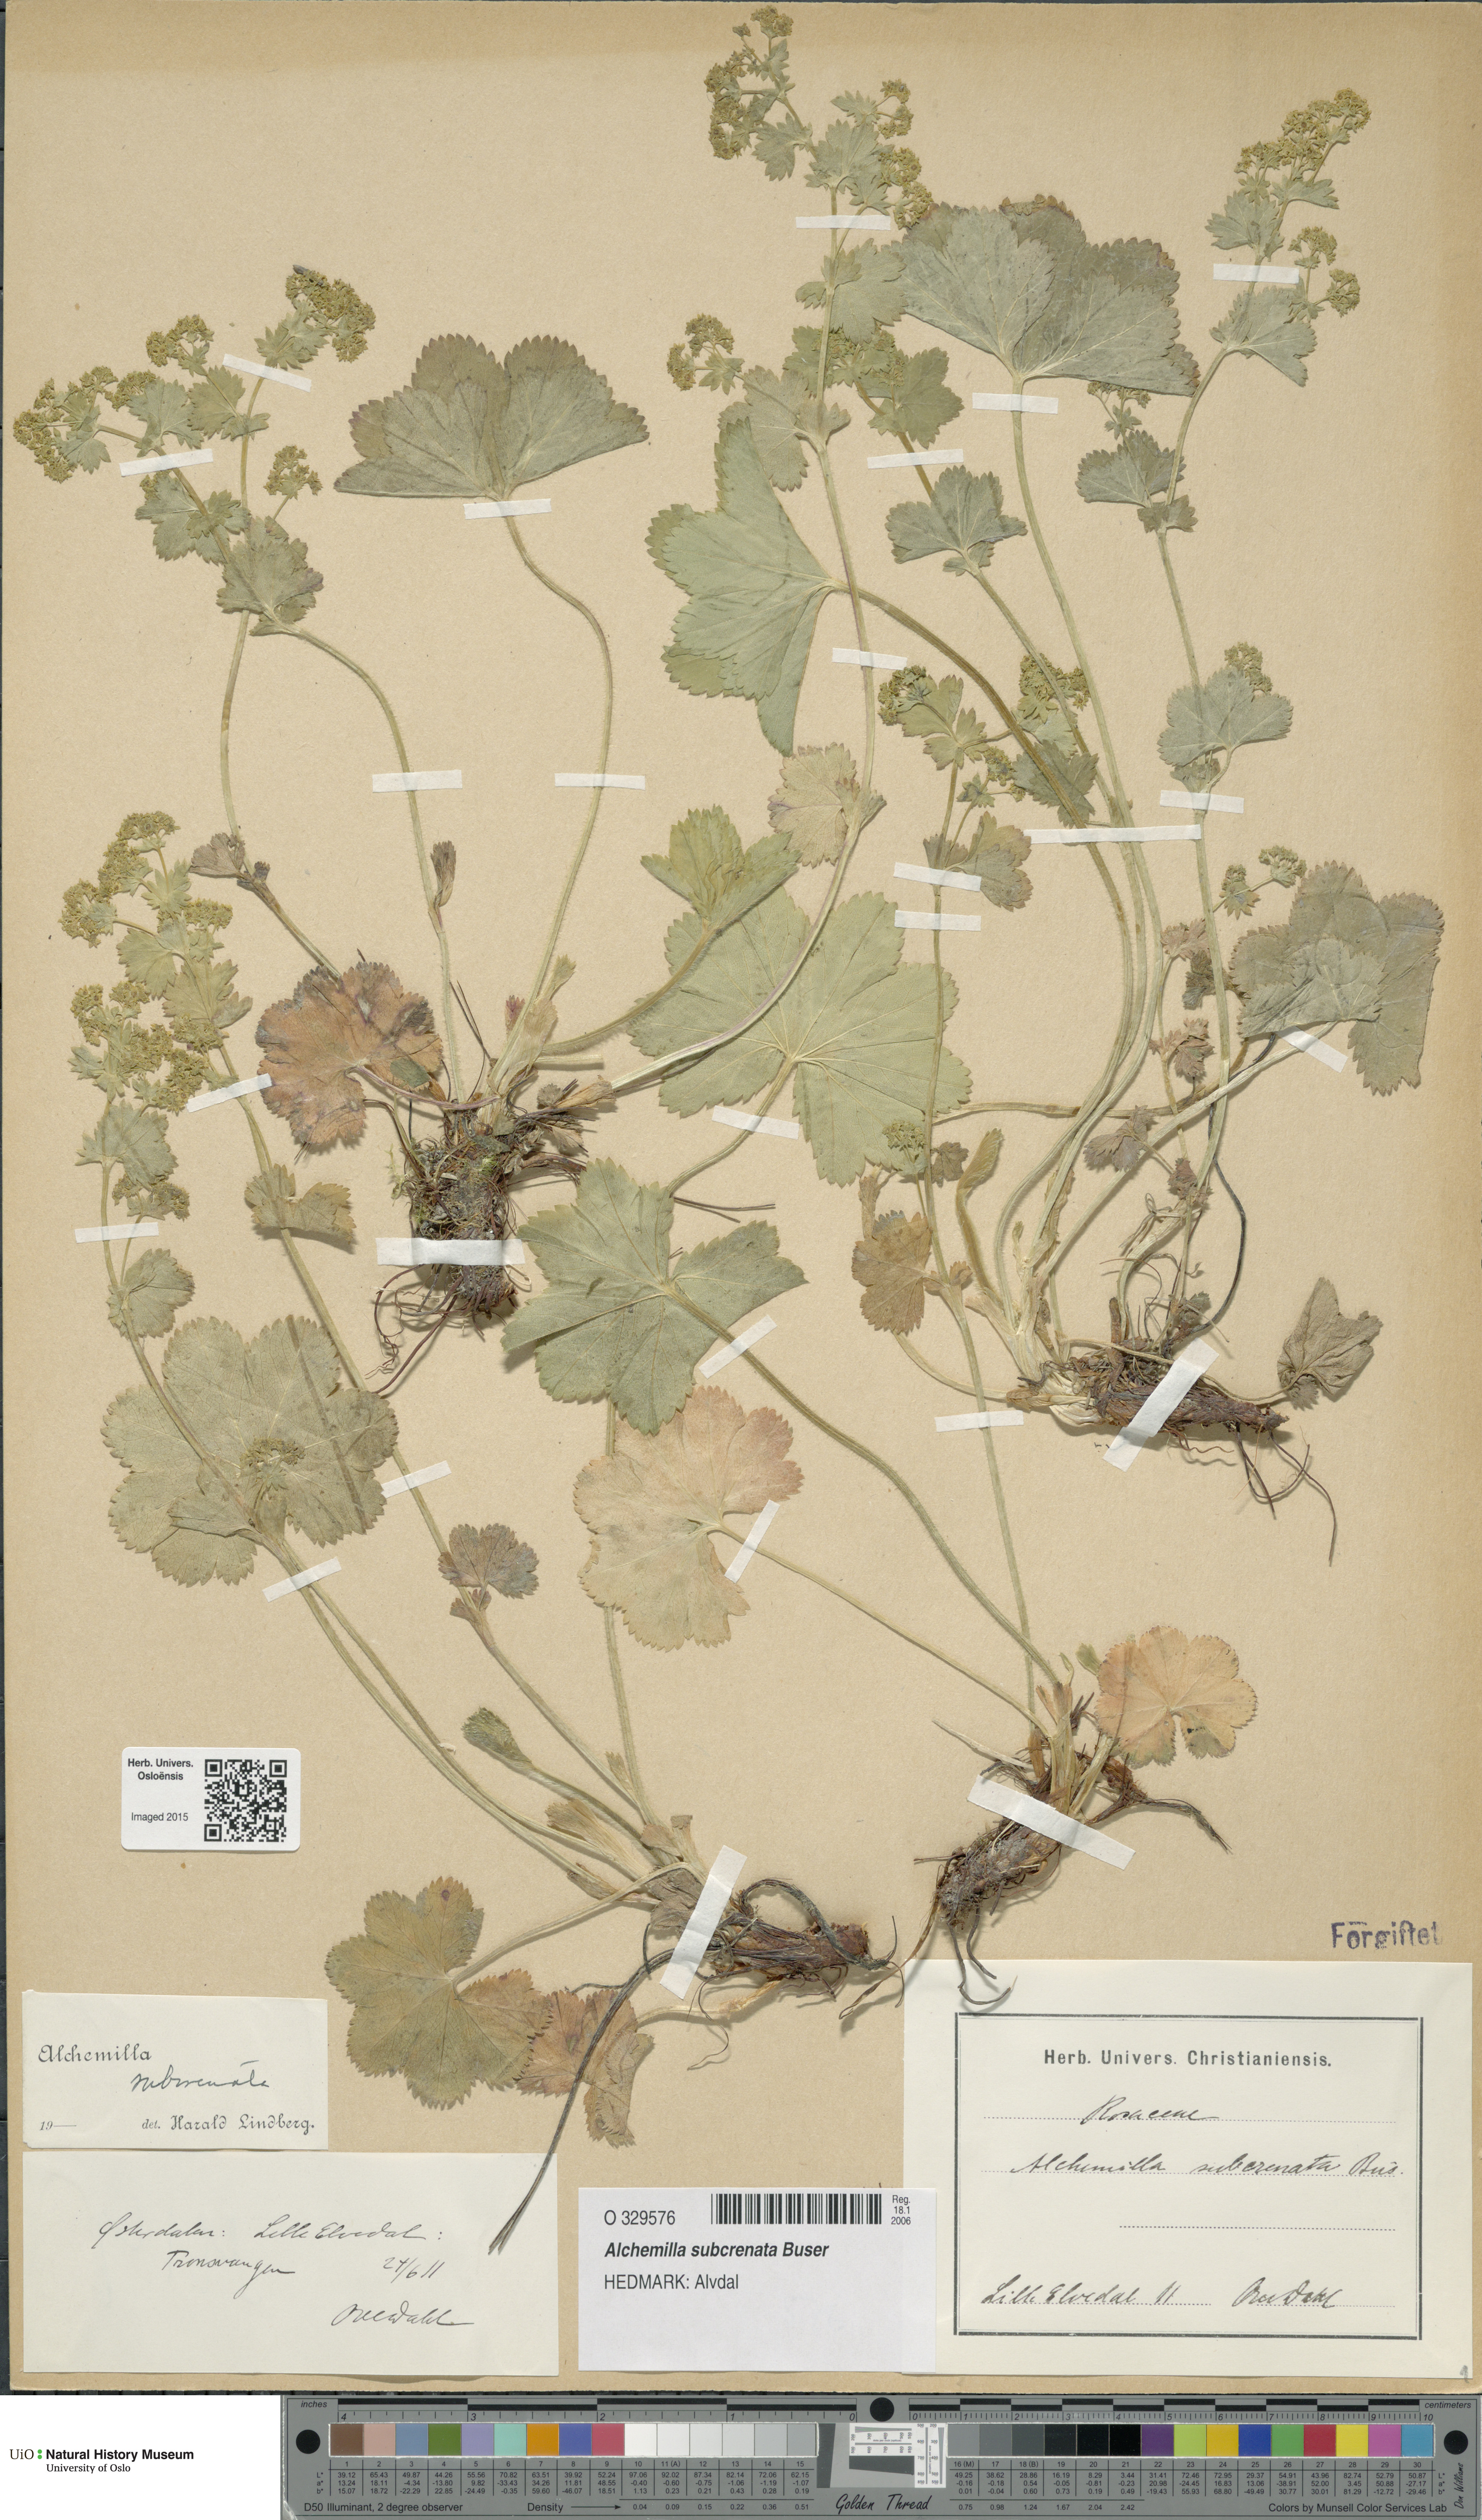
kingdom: Plantae
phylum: Tracheophyta
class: Magnoliopsida
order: Rosales
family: Rosaceae
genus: Alchemilla
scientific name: Alchemilla subcrenata
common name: Broadtooth lady's mantle
